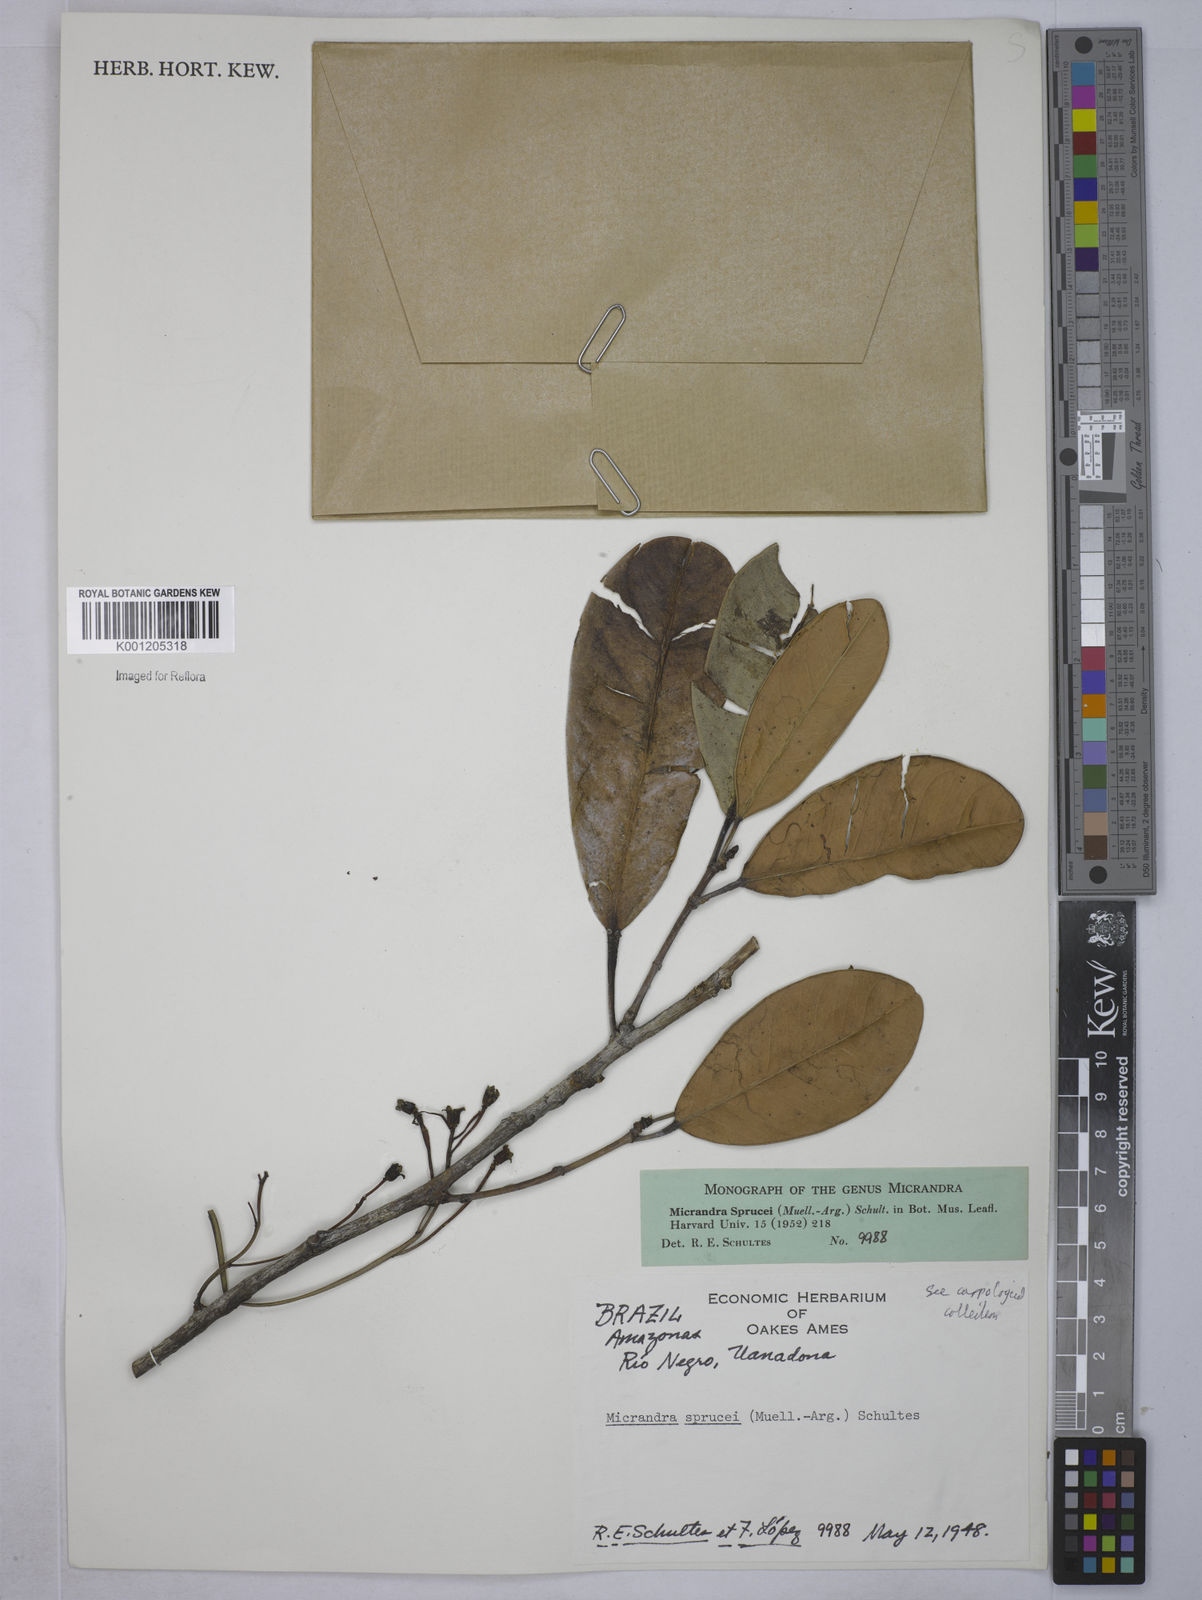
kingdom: Plantae
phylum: Tracheophyta
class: Magnoliopsida
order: Malpighiales
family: Euphorbiaceae
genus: Micrandra
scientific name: Micrandra spruceana
